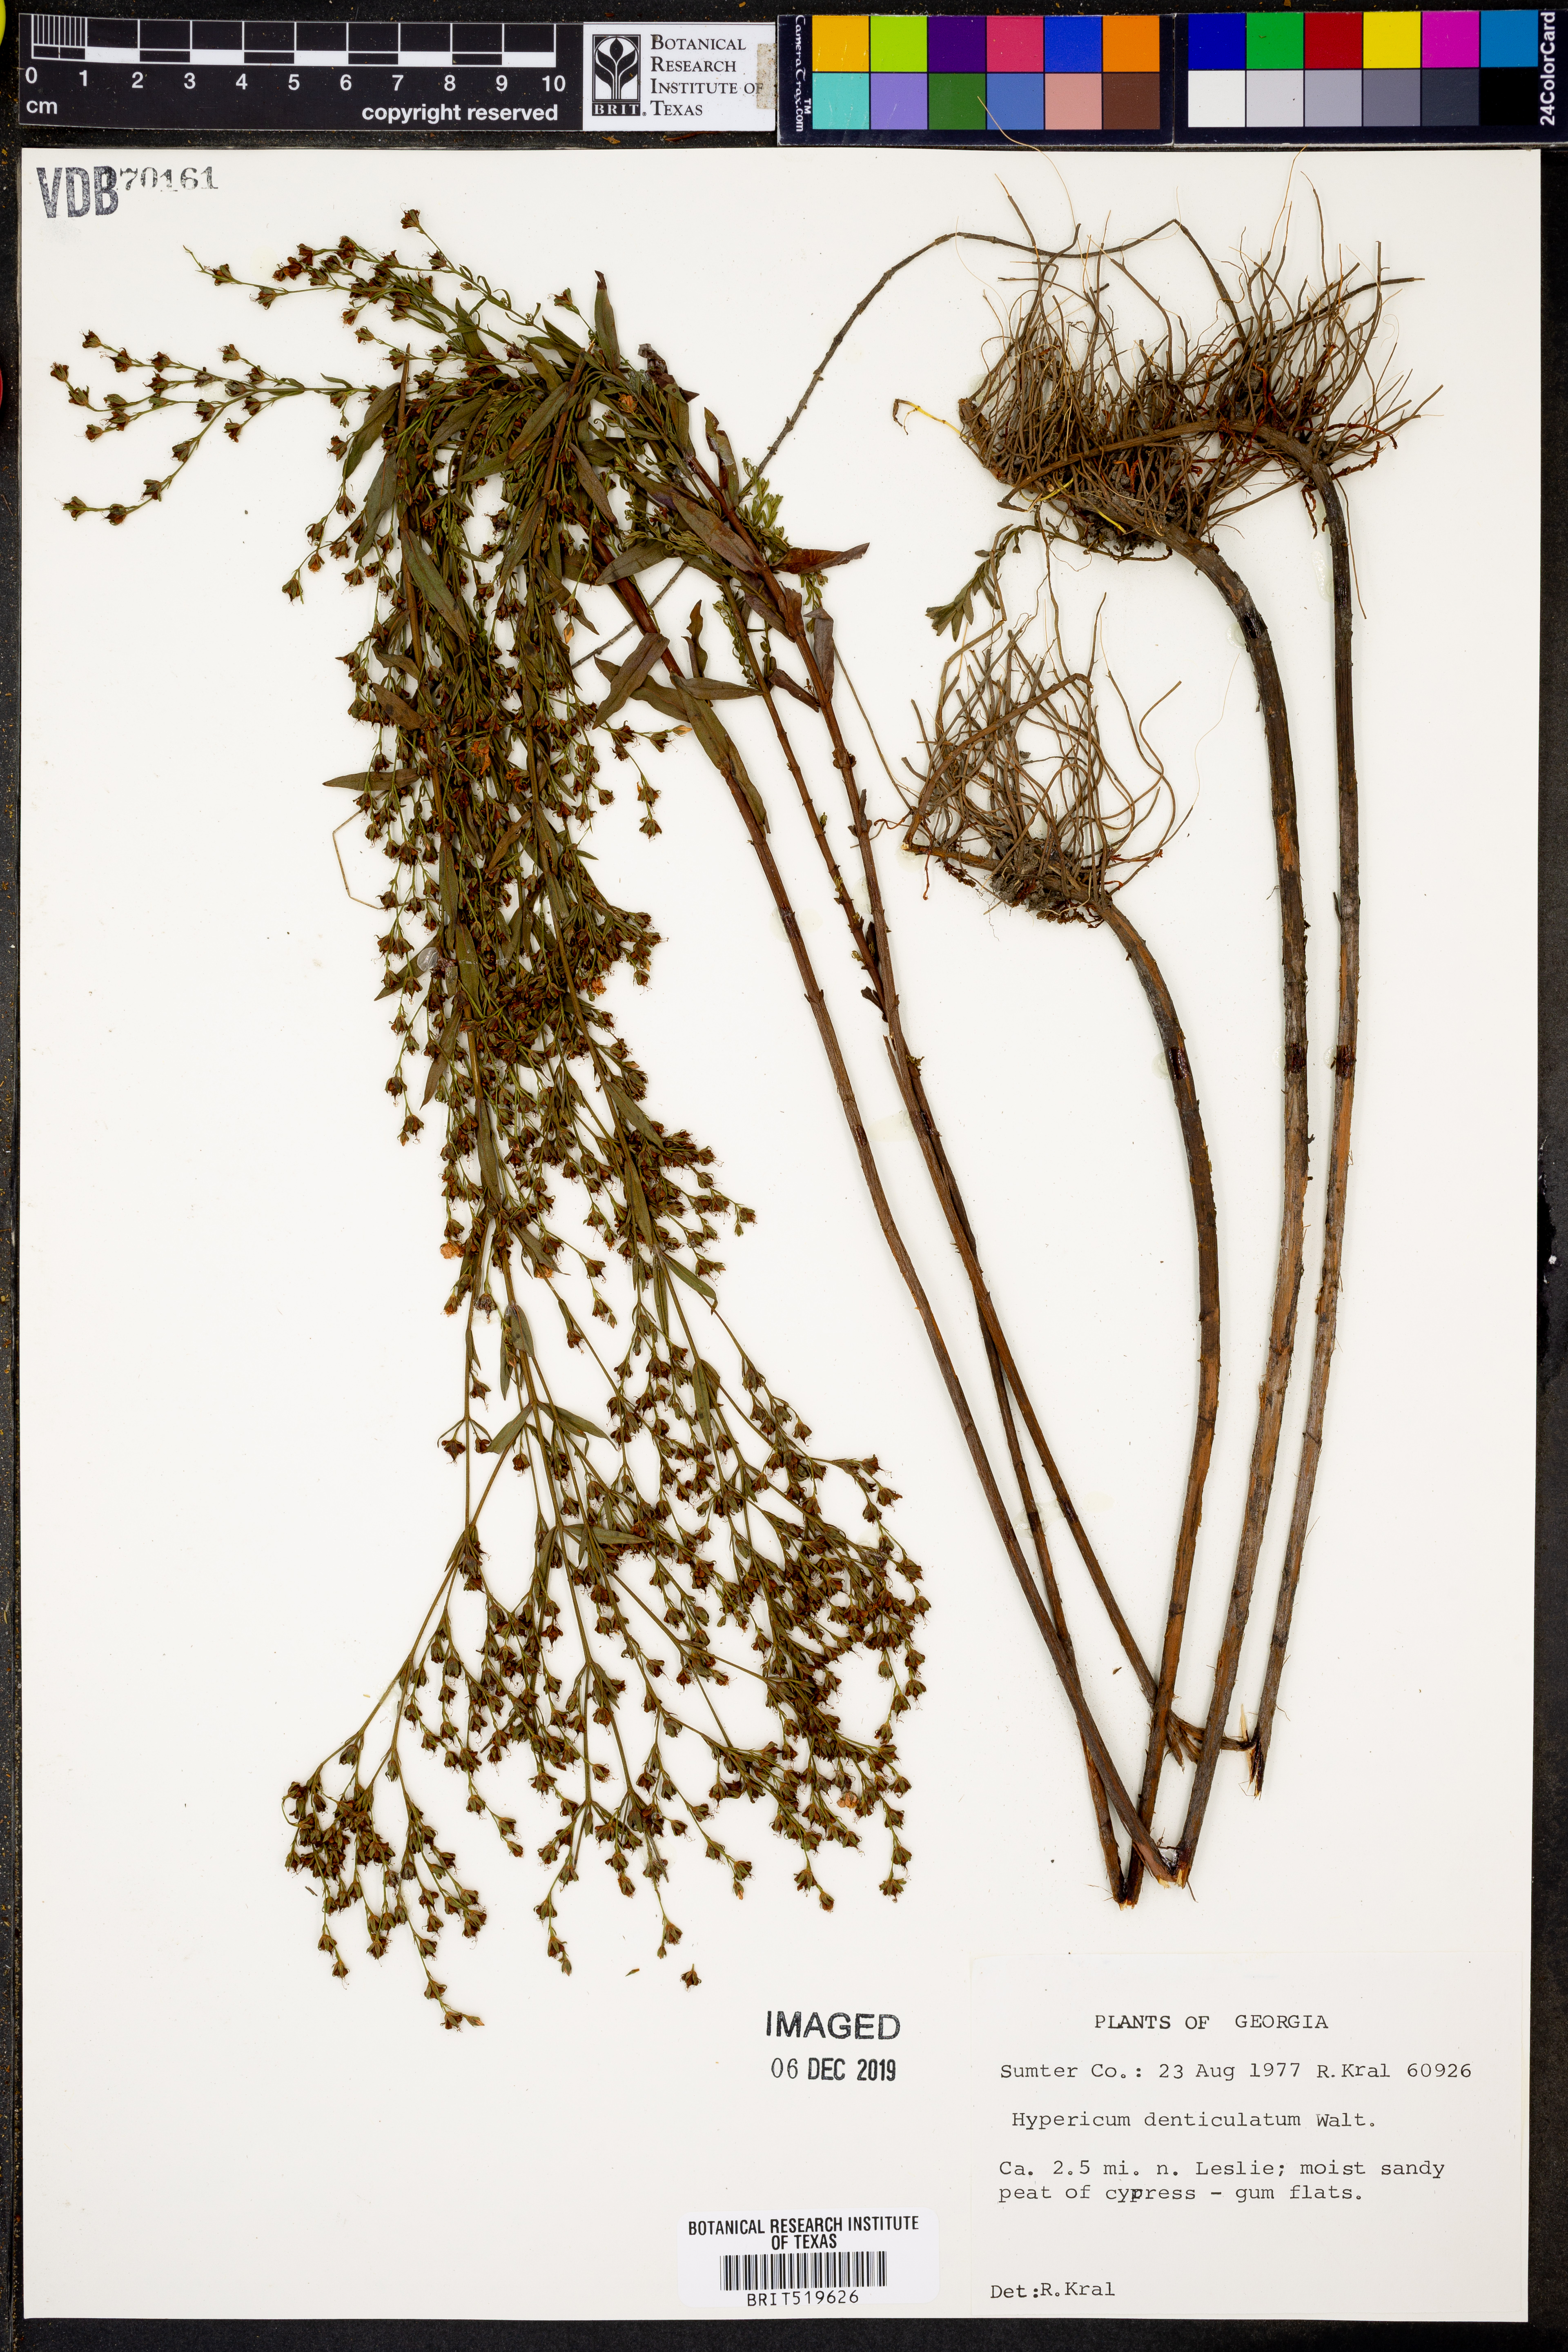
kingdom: Plantae
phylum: Tracheophyta
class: Magnoliopsida
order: Malpighiales
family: Hypericaceae
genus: Hypericum
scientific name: Hypericum denticulatum
